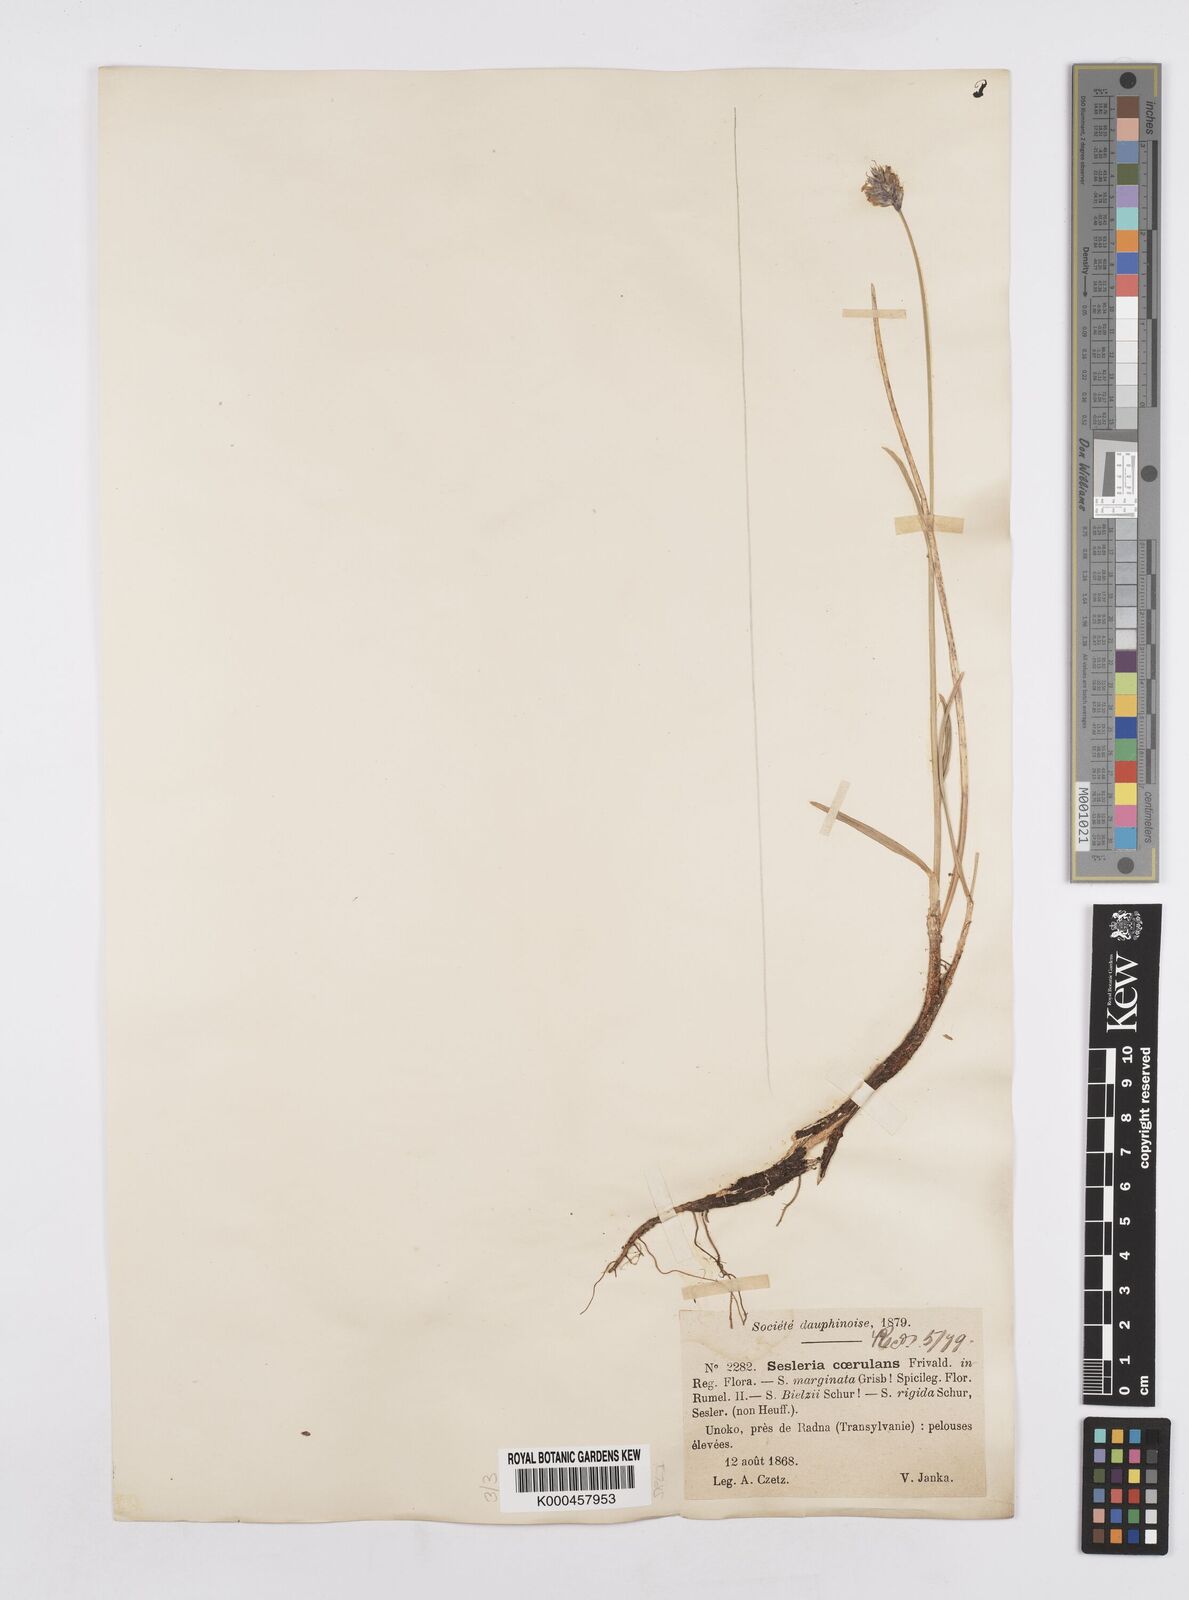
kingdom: Plantae
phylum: Tracheophyta
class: Liliopsida
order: Poales
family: Poaceae
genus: Sesleria
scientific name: Sesleria coerulans
